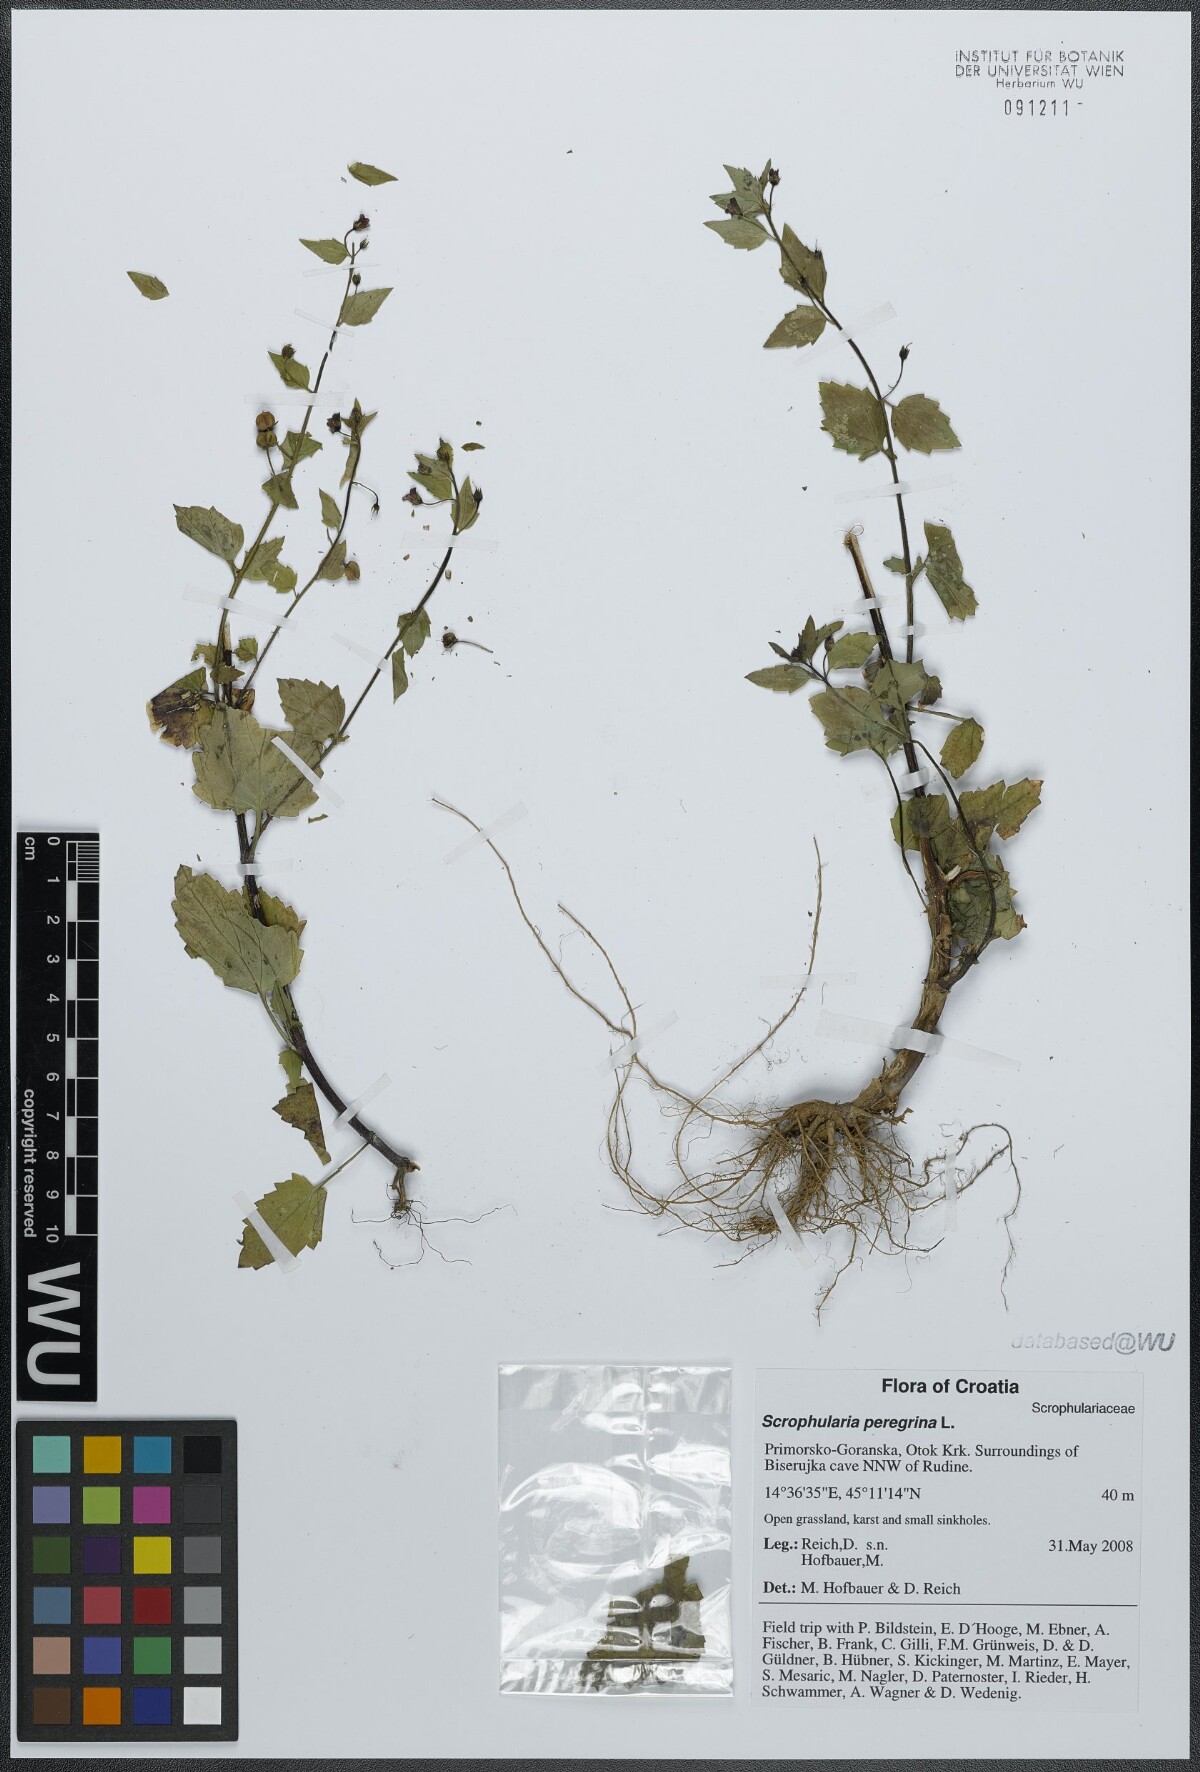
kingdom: Plantae
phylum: Tracheophyta
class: Magnoliopsida
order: Lamiales
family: Scrophulariaceae
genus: Scrophularia
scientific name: Scrophularia peregrina
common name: Mediterranean figwort
